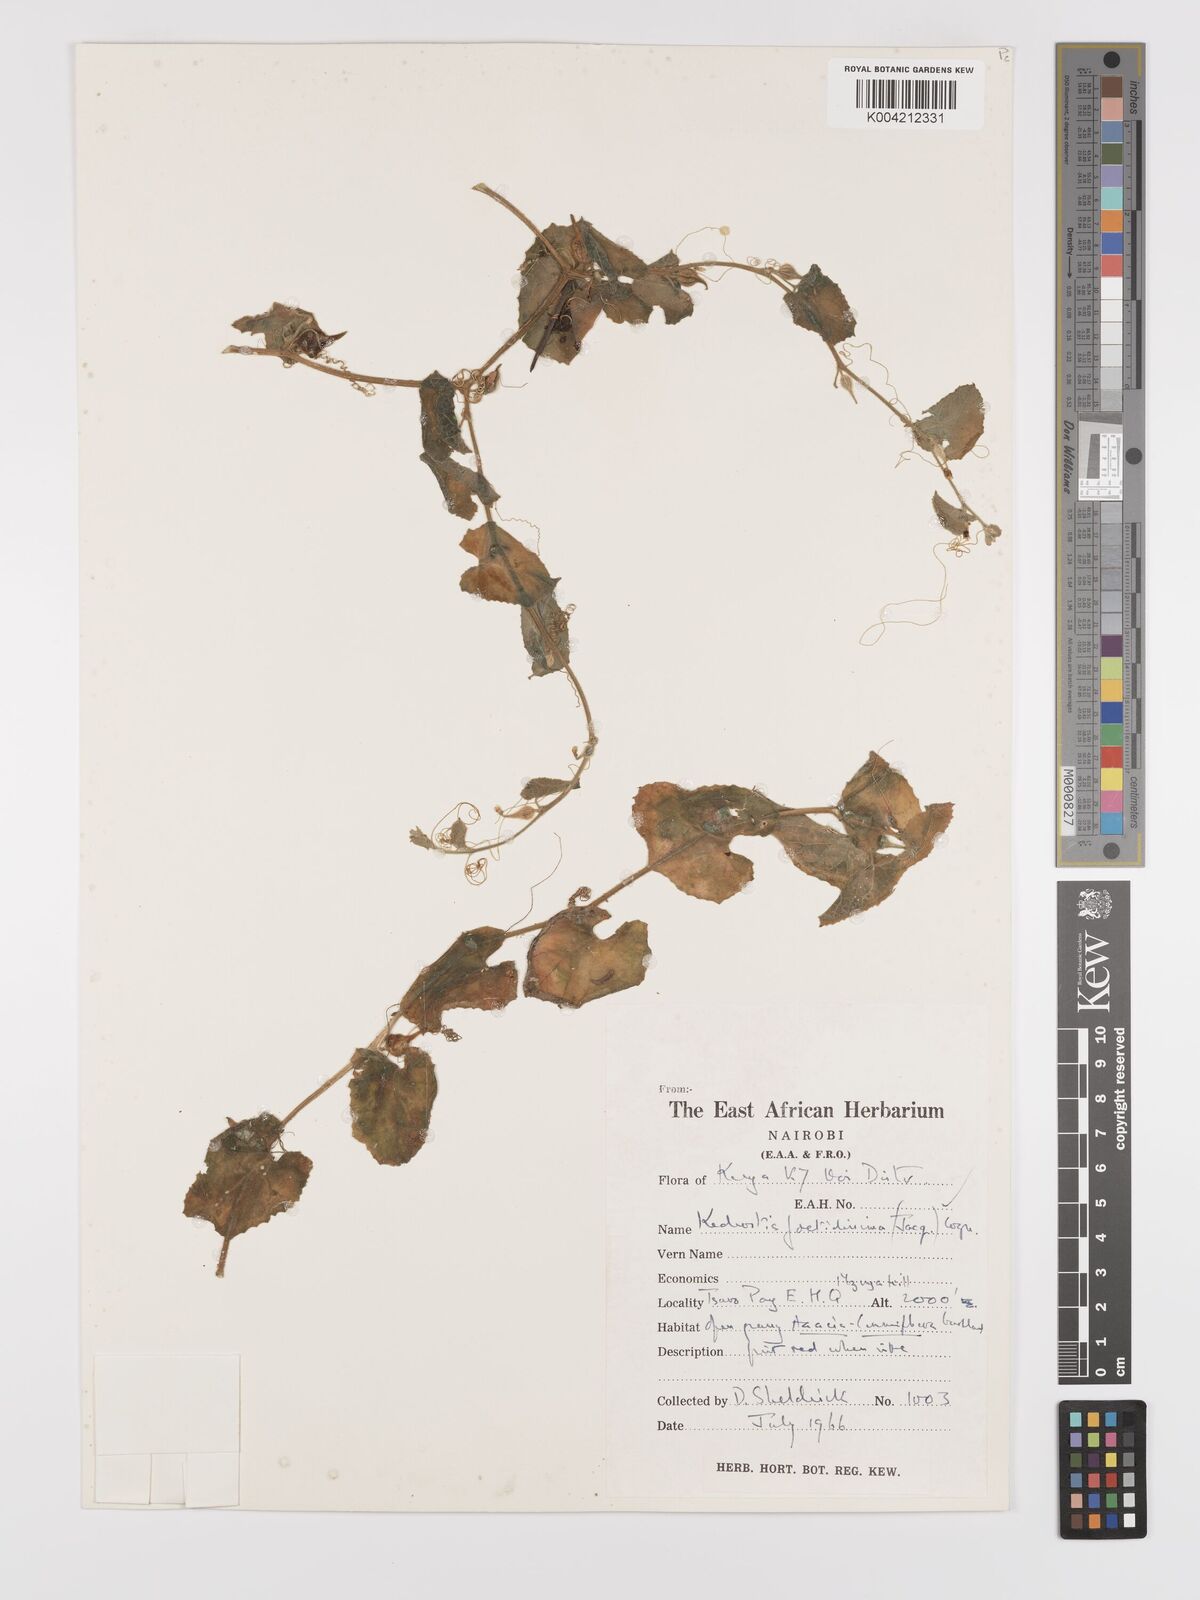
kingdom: Plantae
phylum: Tracheophyta
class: Magnoliopsida
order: Cucurbitales
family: Cucurbitaceae
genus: Kedrostis
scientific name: Kedrostis foetidissima
